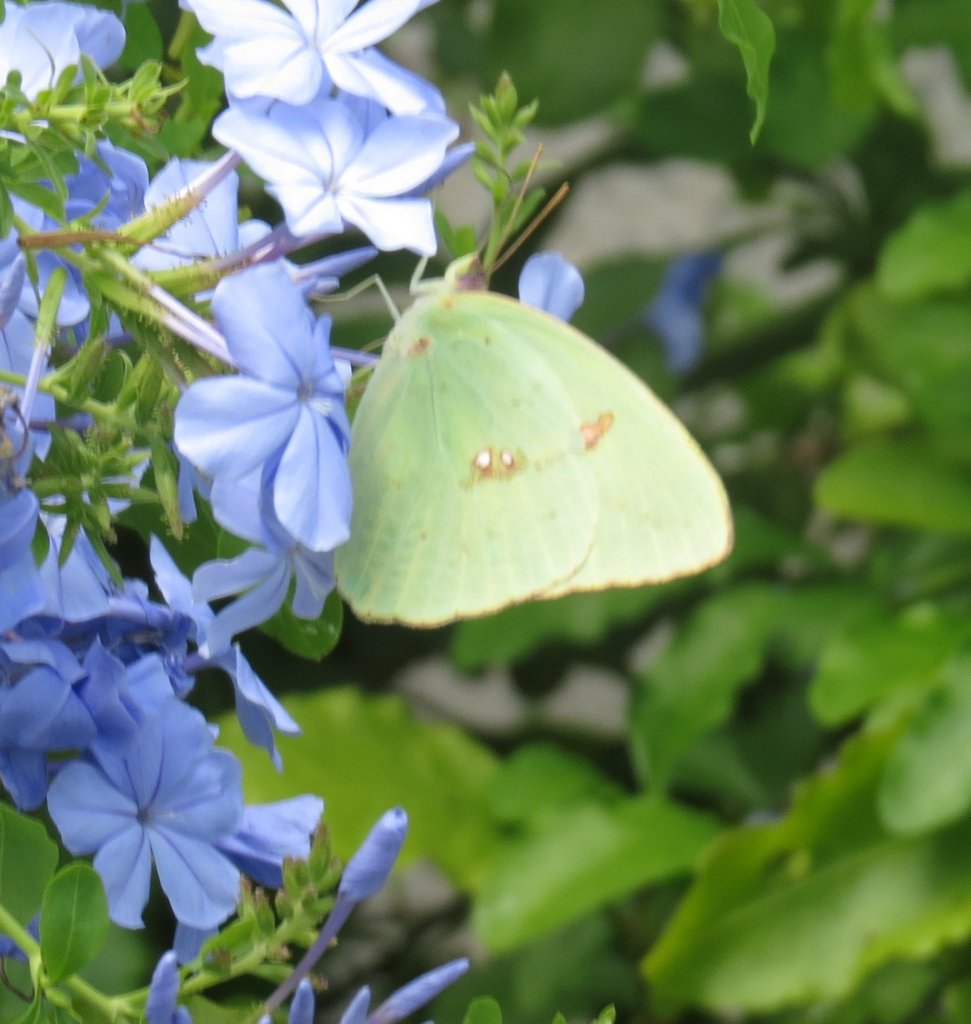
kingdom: Animalia
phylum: Arthropoda
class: Insecta
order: Lepidoptera
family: Pieridae
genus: Phoebis
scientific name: Phoebis sennae
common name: Cloudless Sulphur
